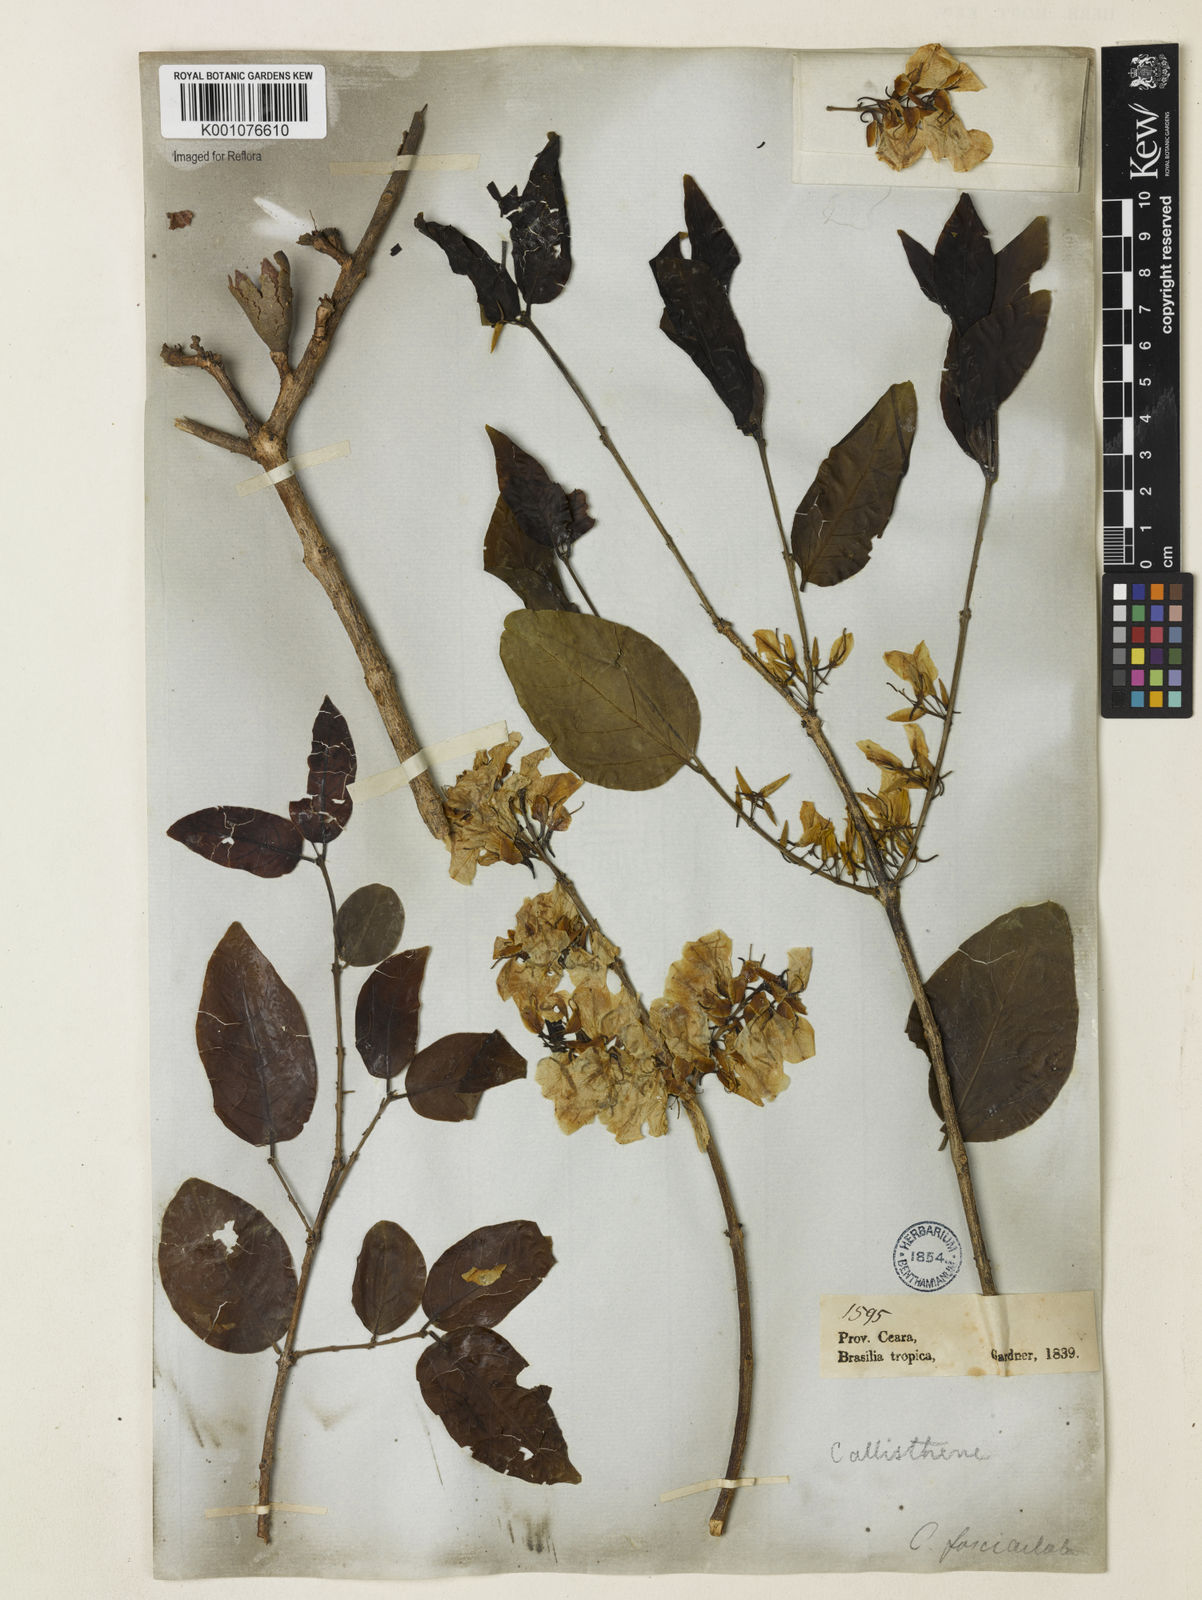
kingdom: Plantae
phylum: Tracheophyta
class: Magnoliopsida
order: Myrtales
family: Vochysiaceae
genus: Callisthene
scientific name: Callisthene fasciculata
